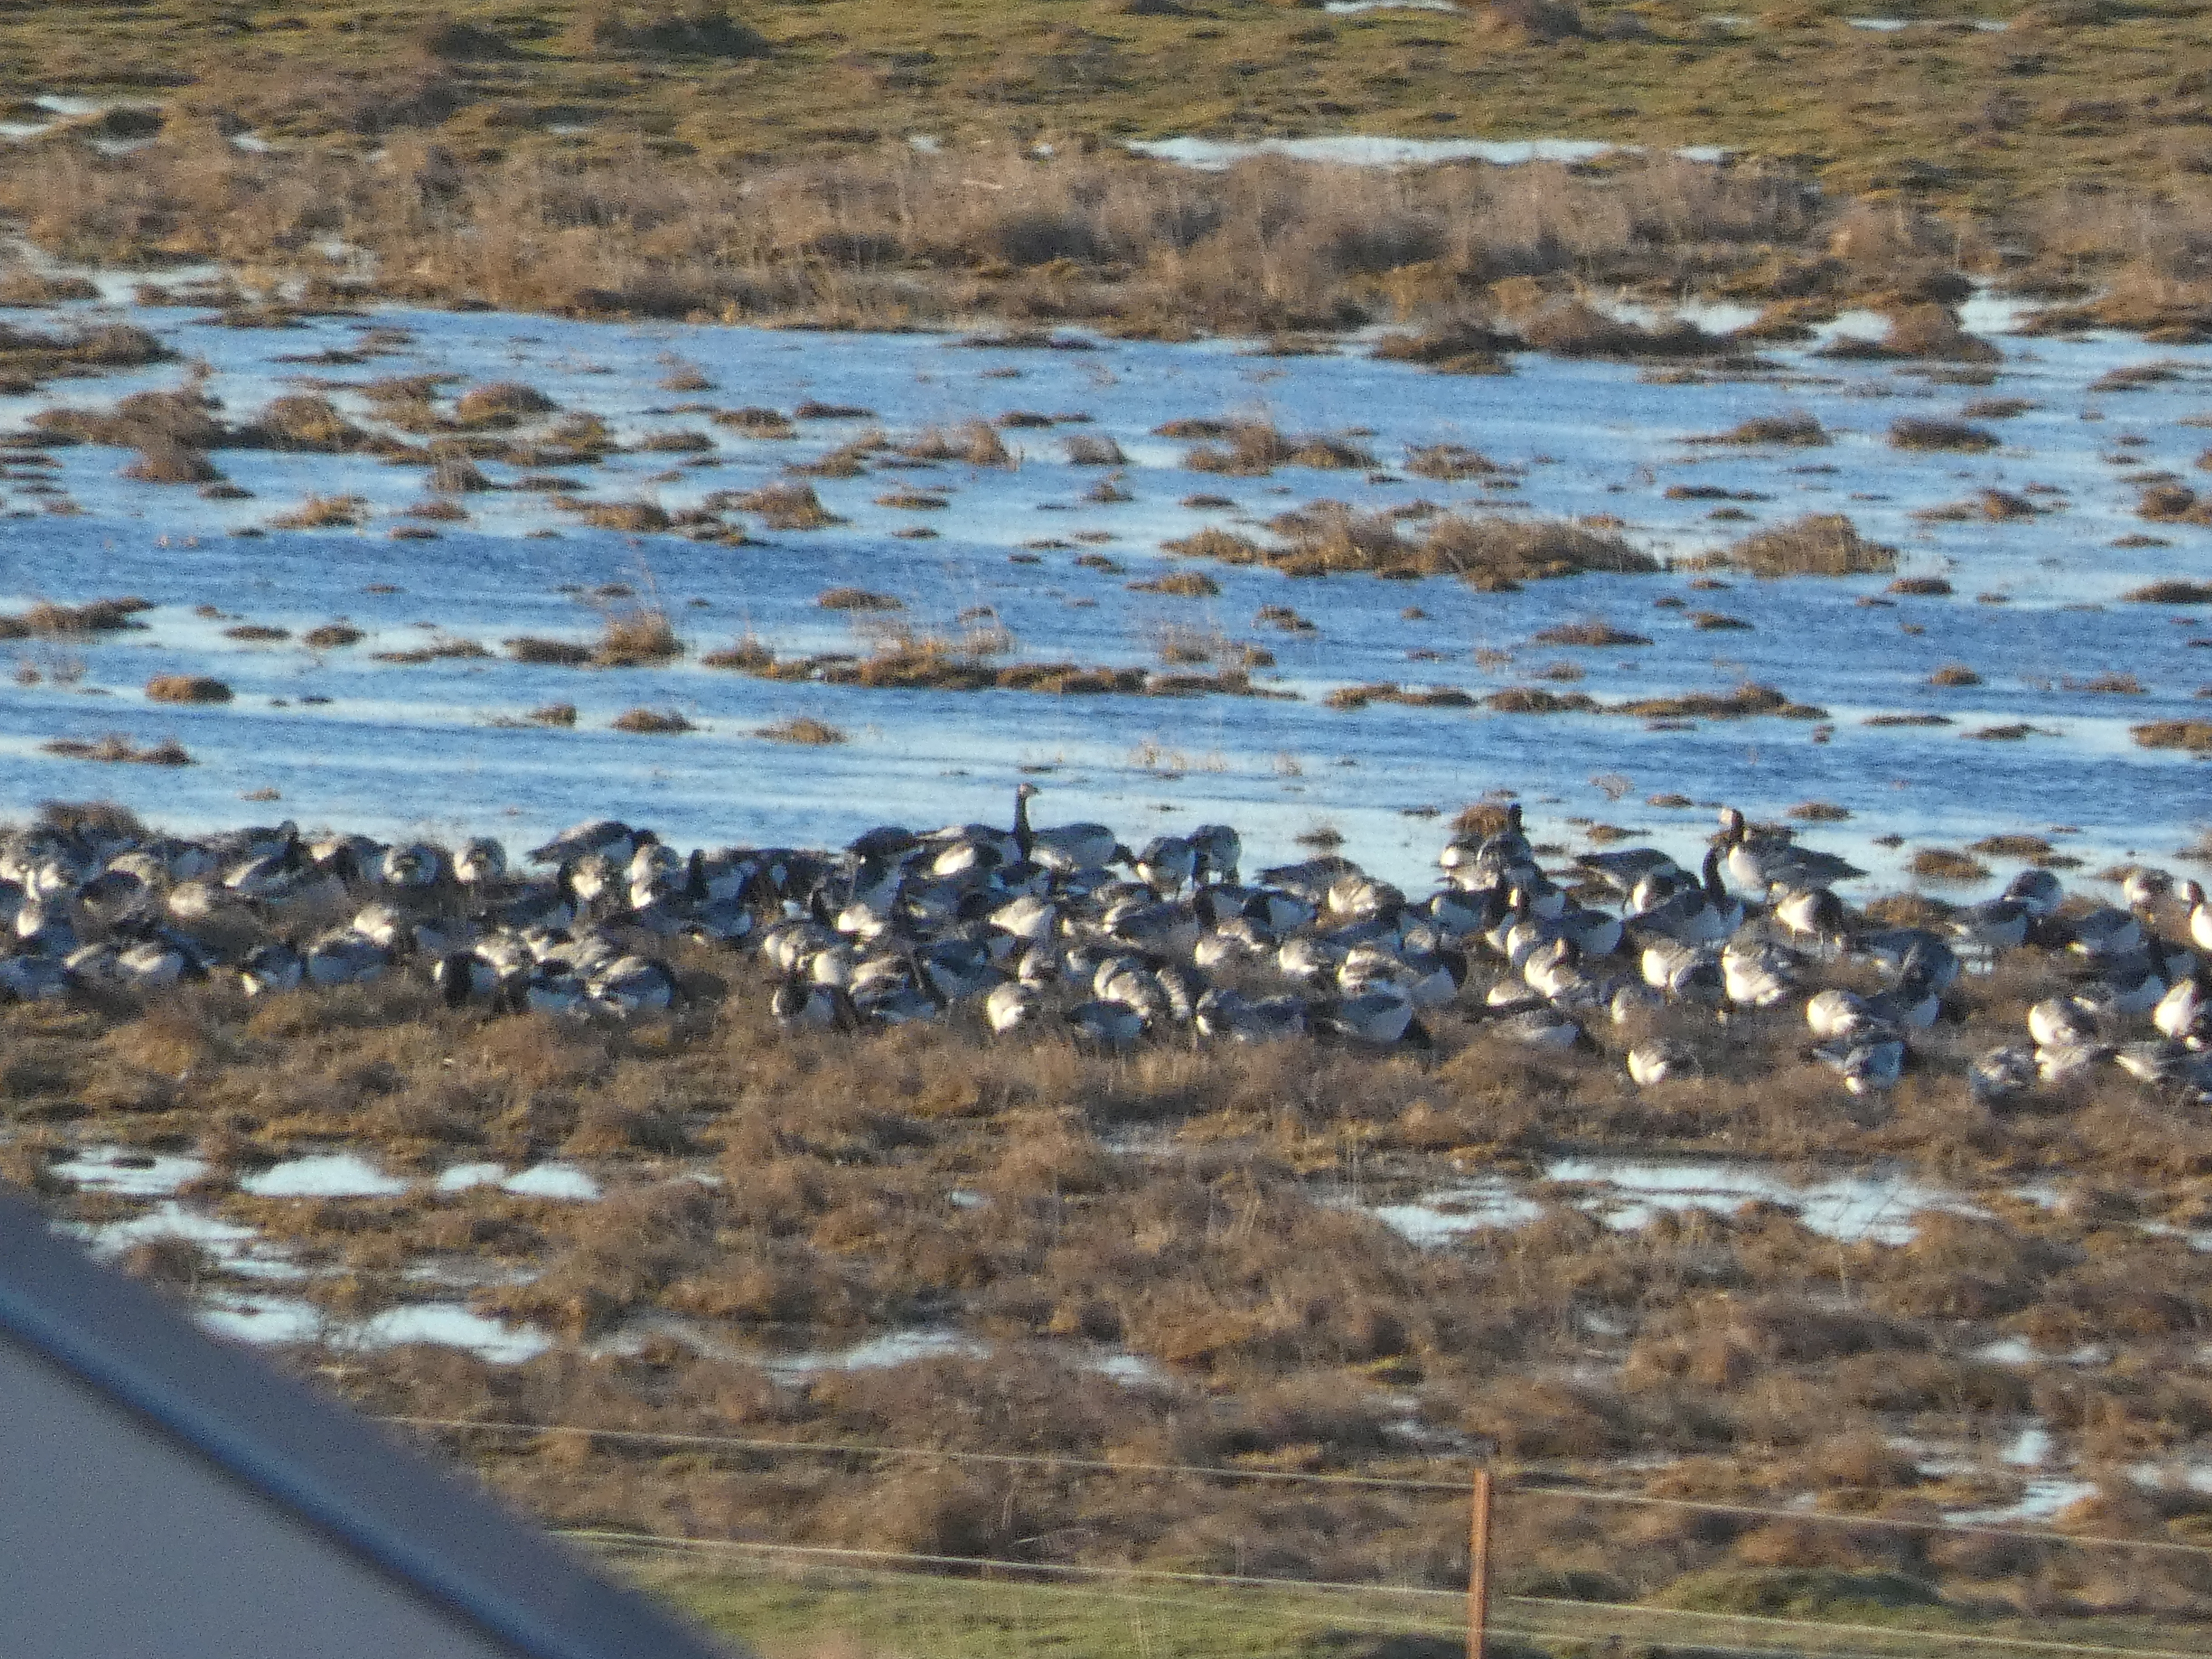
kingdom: Animalia
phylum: Chordata
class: Aves
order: Anseriformes
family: Anatidae
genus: Branta
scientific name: Branta leucopsis
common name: Bramgås
